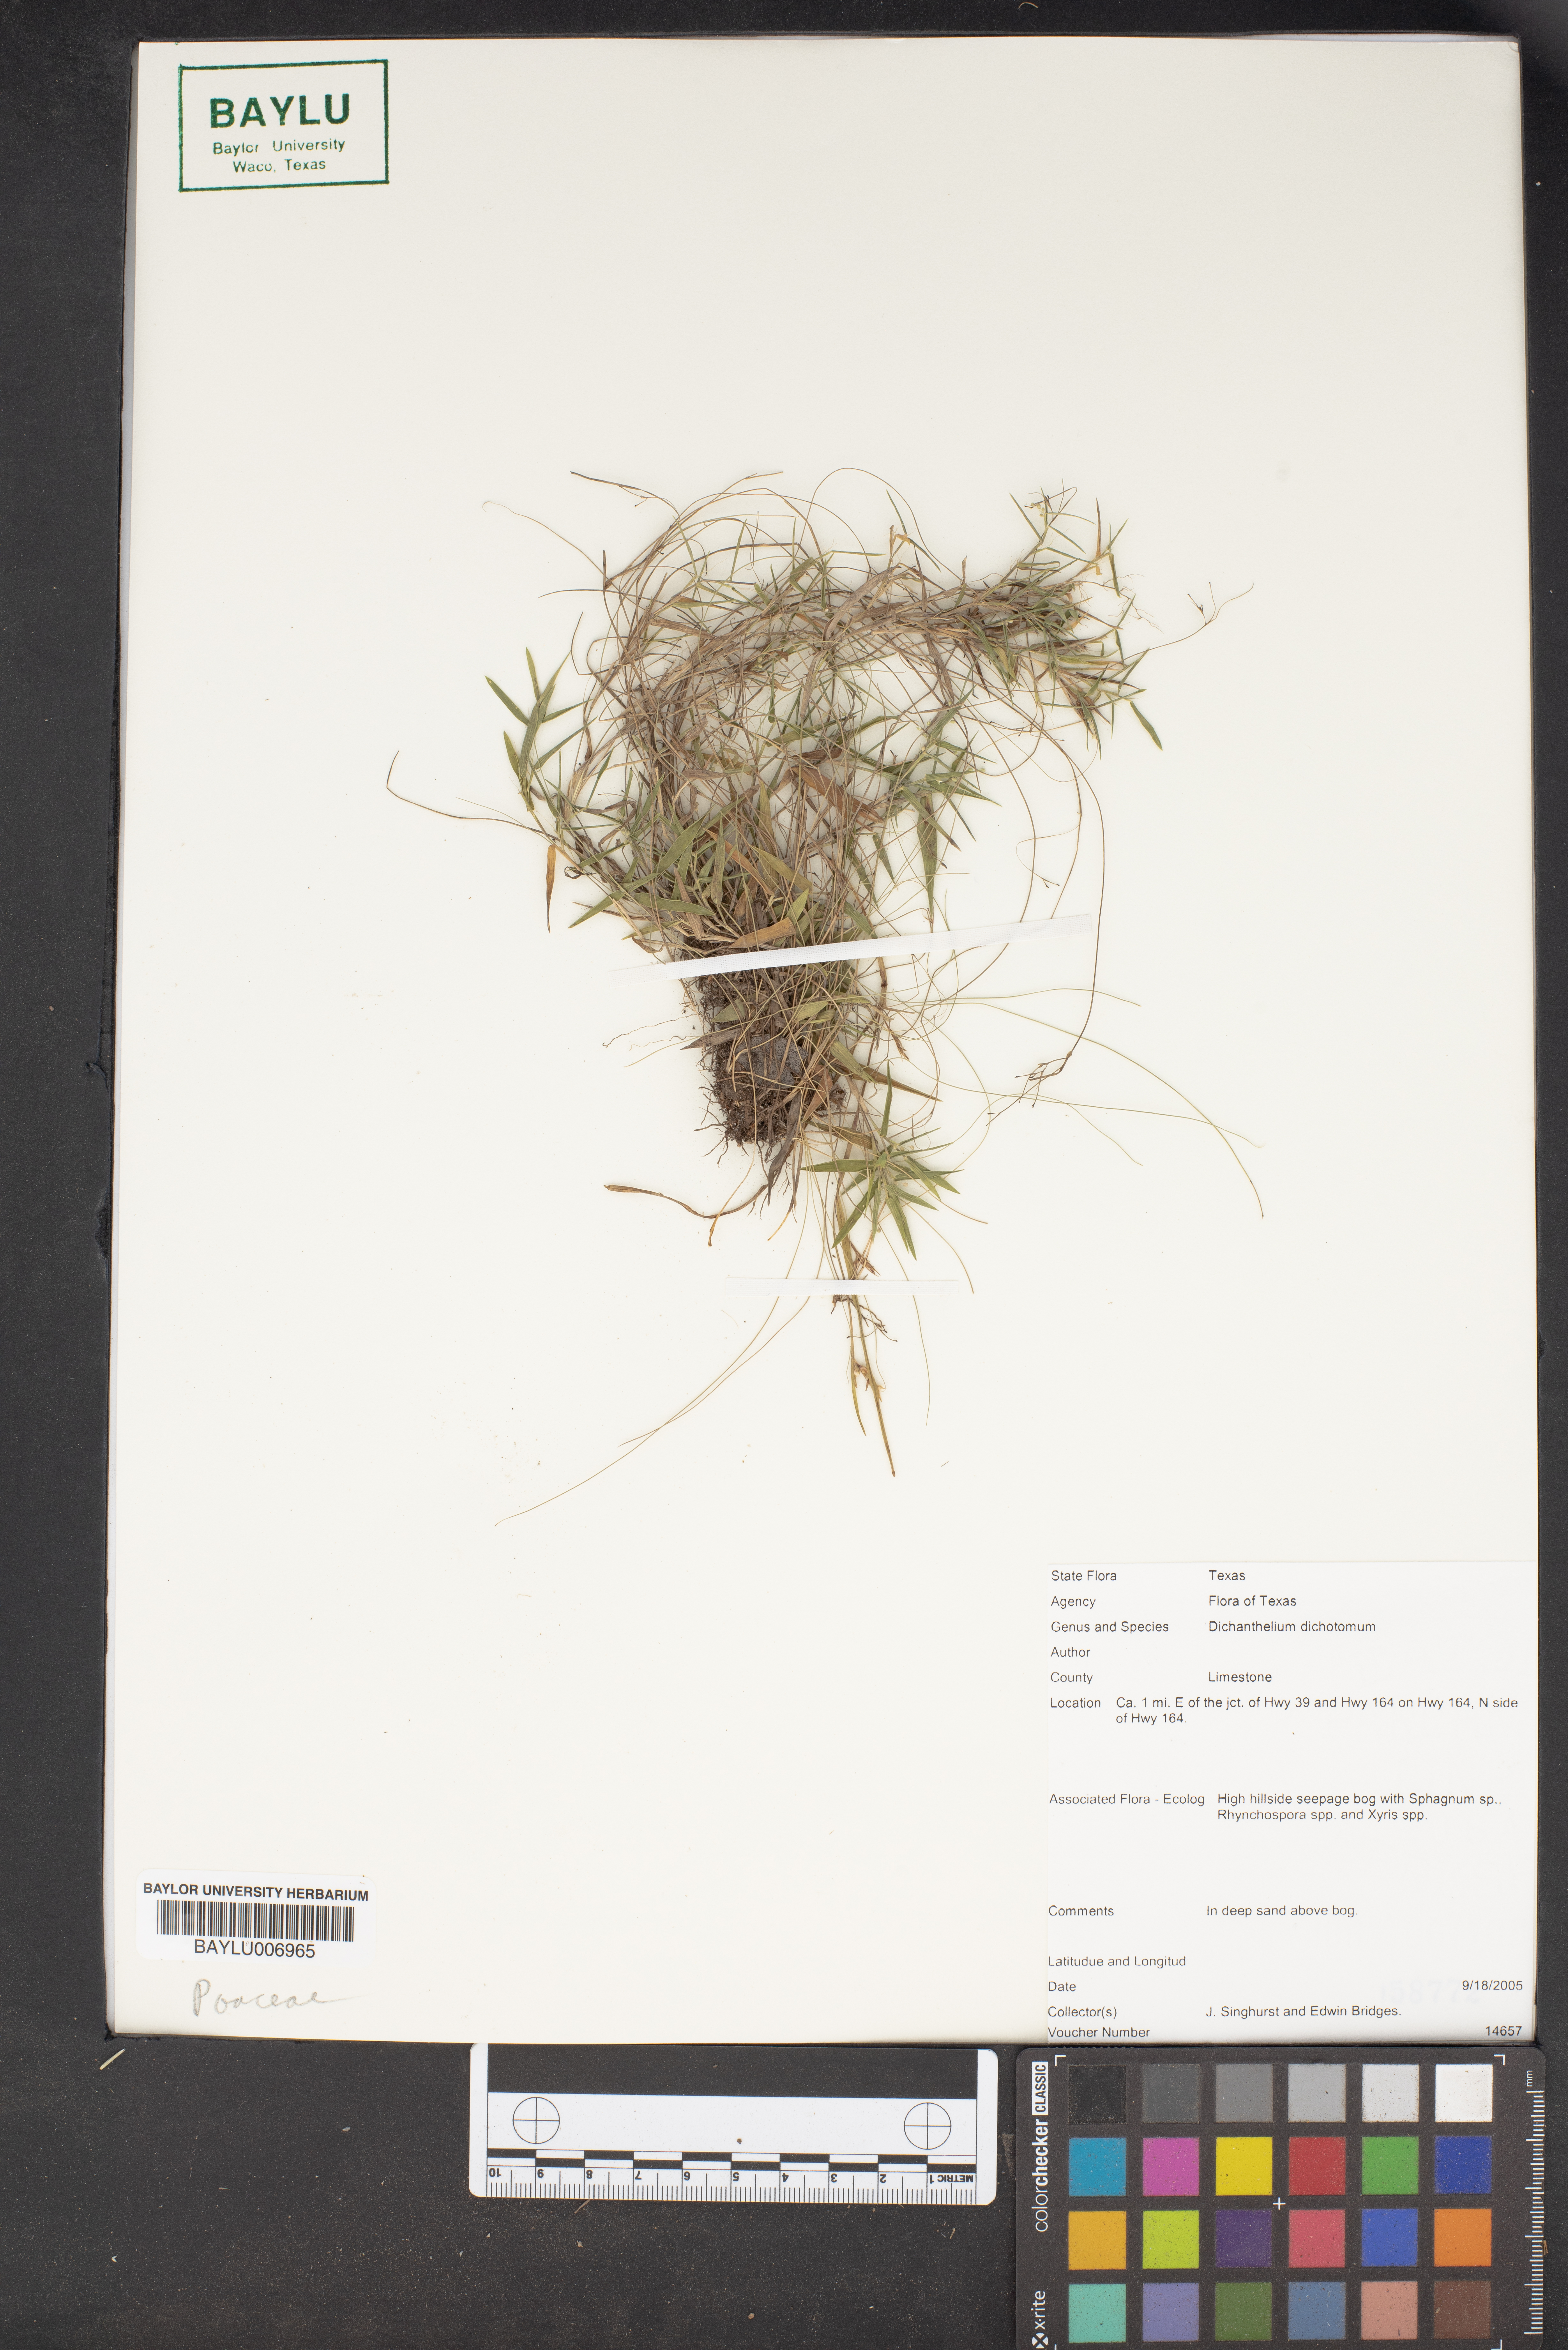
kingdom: Plantae
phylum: Tracheophyta
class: Liliopsida
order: Poales
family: Poaceae
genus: Dichanthelium
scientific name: Dichanthelium dichotomum
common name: Cypress panicgrass
